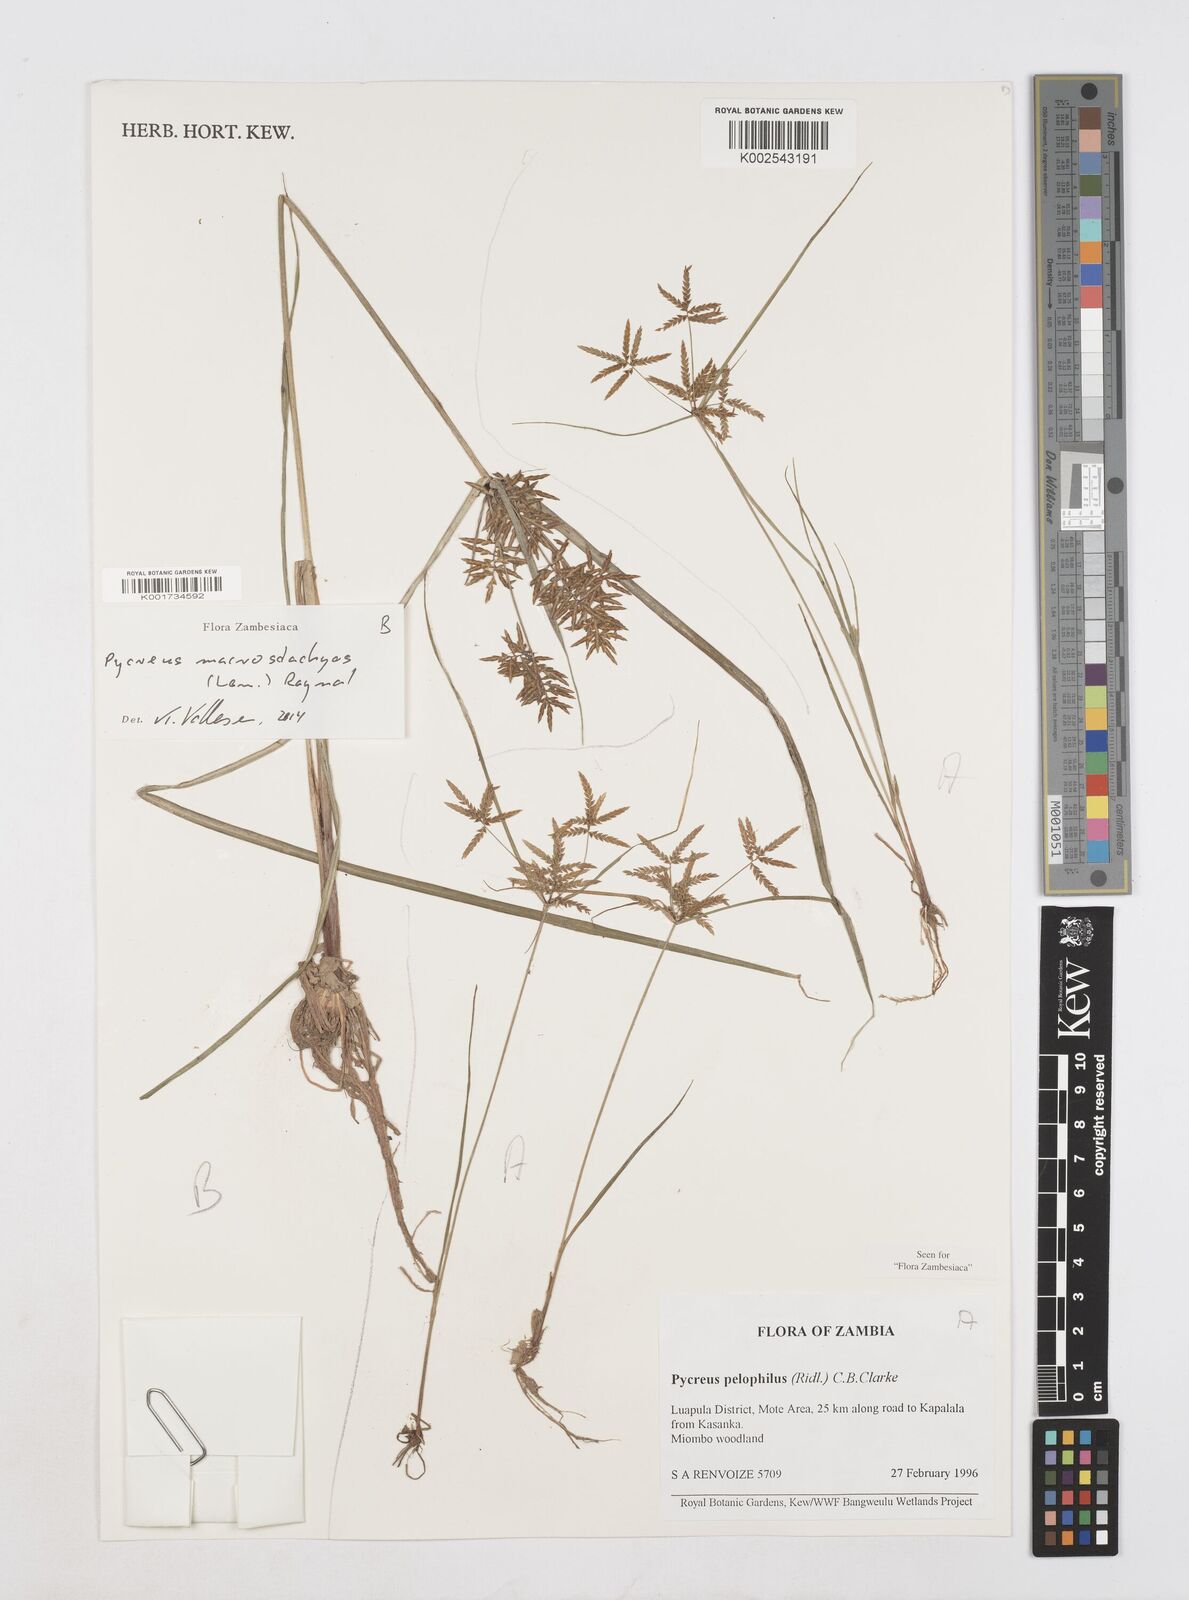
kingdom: Plantae
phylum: Tracheophyta
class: Liliopsida
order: Poales
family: Cyperaceae
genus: Cyperus
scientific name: Cyperus macrostachyos
